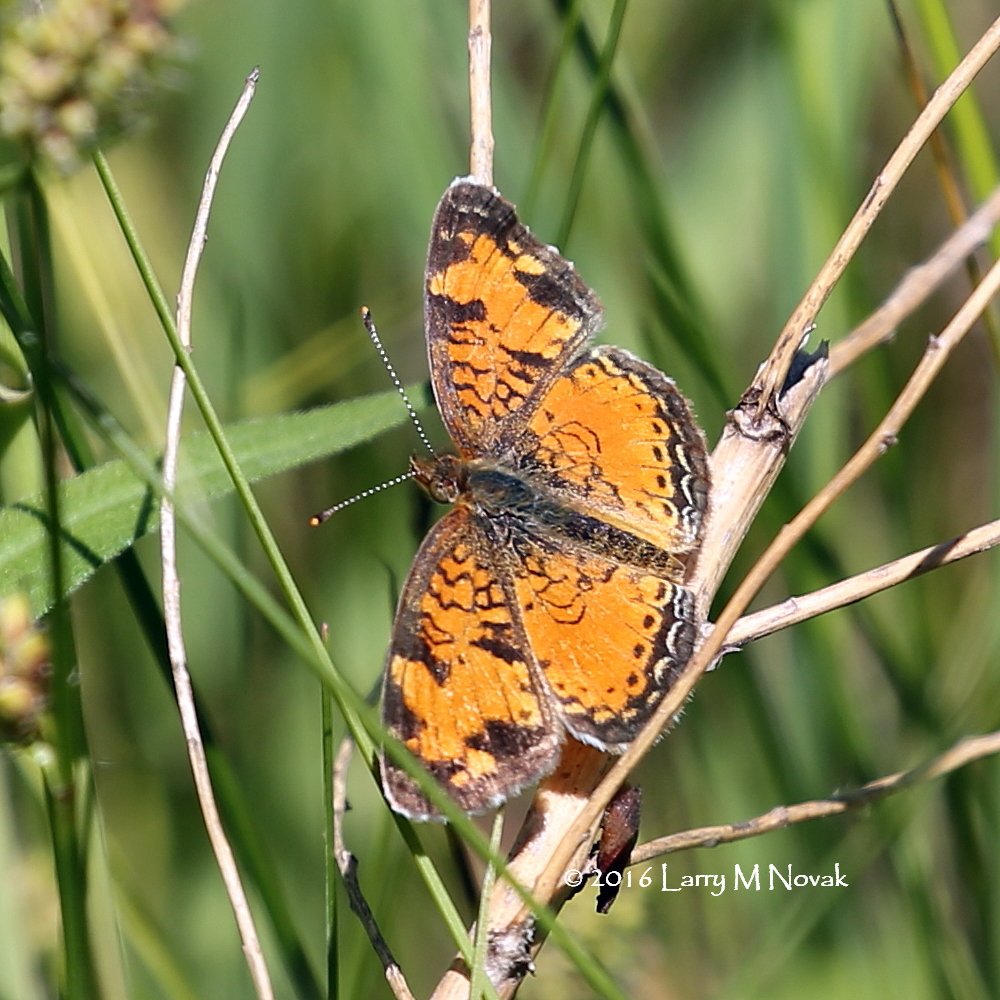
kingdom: Animalia
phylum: Arthropoda
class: Insecta
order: Lepidoptera
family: Nymphalidae
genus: Phyciodes
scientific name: Phyciodes tharos
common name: Northern Crescent
